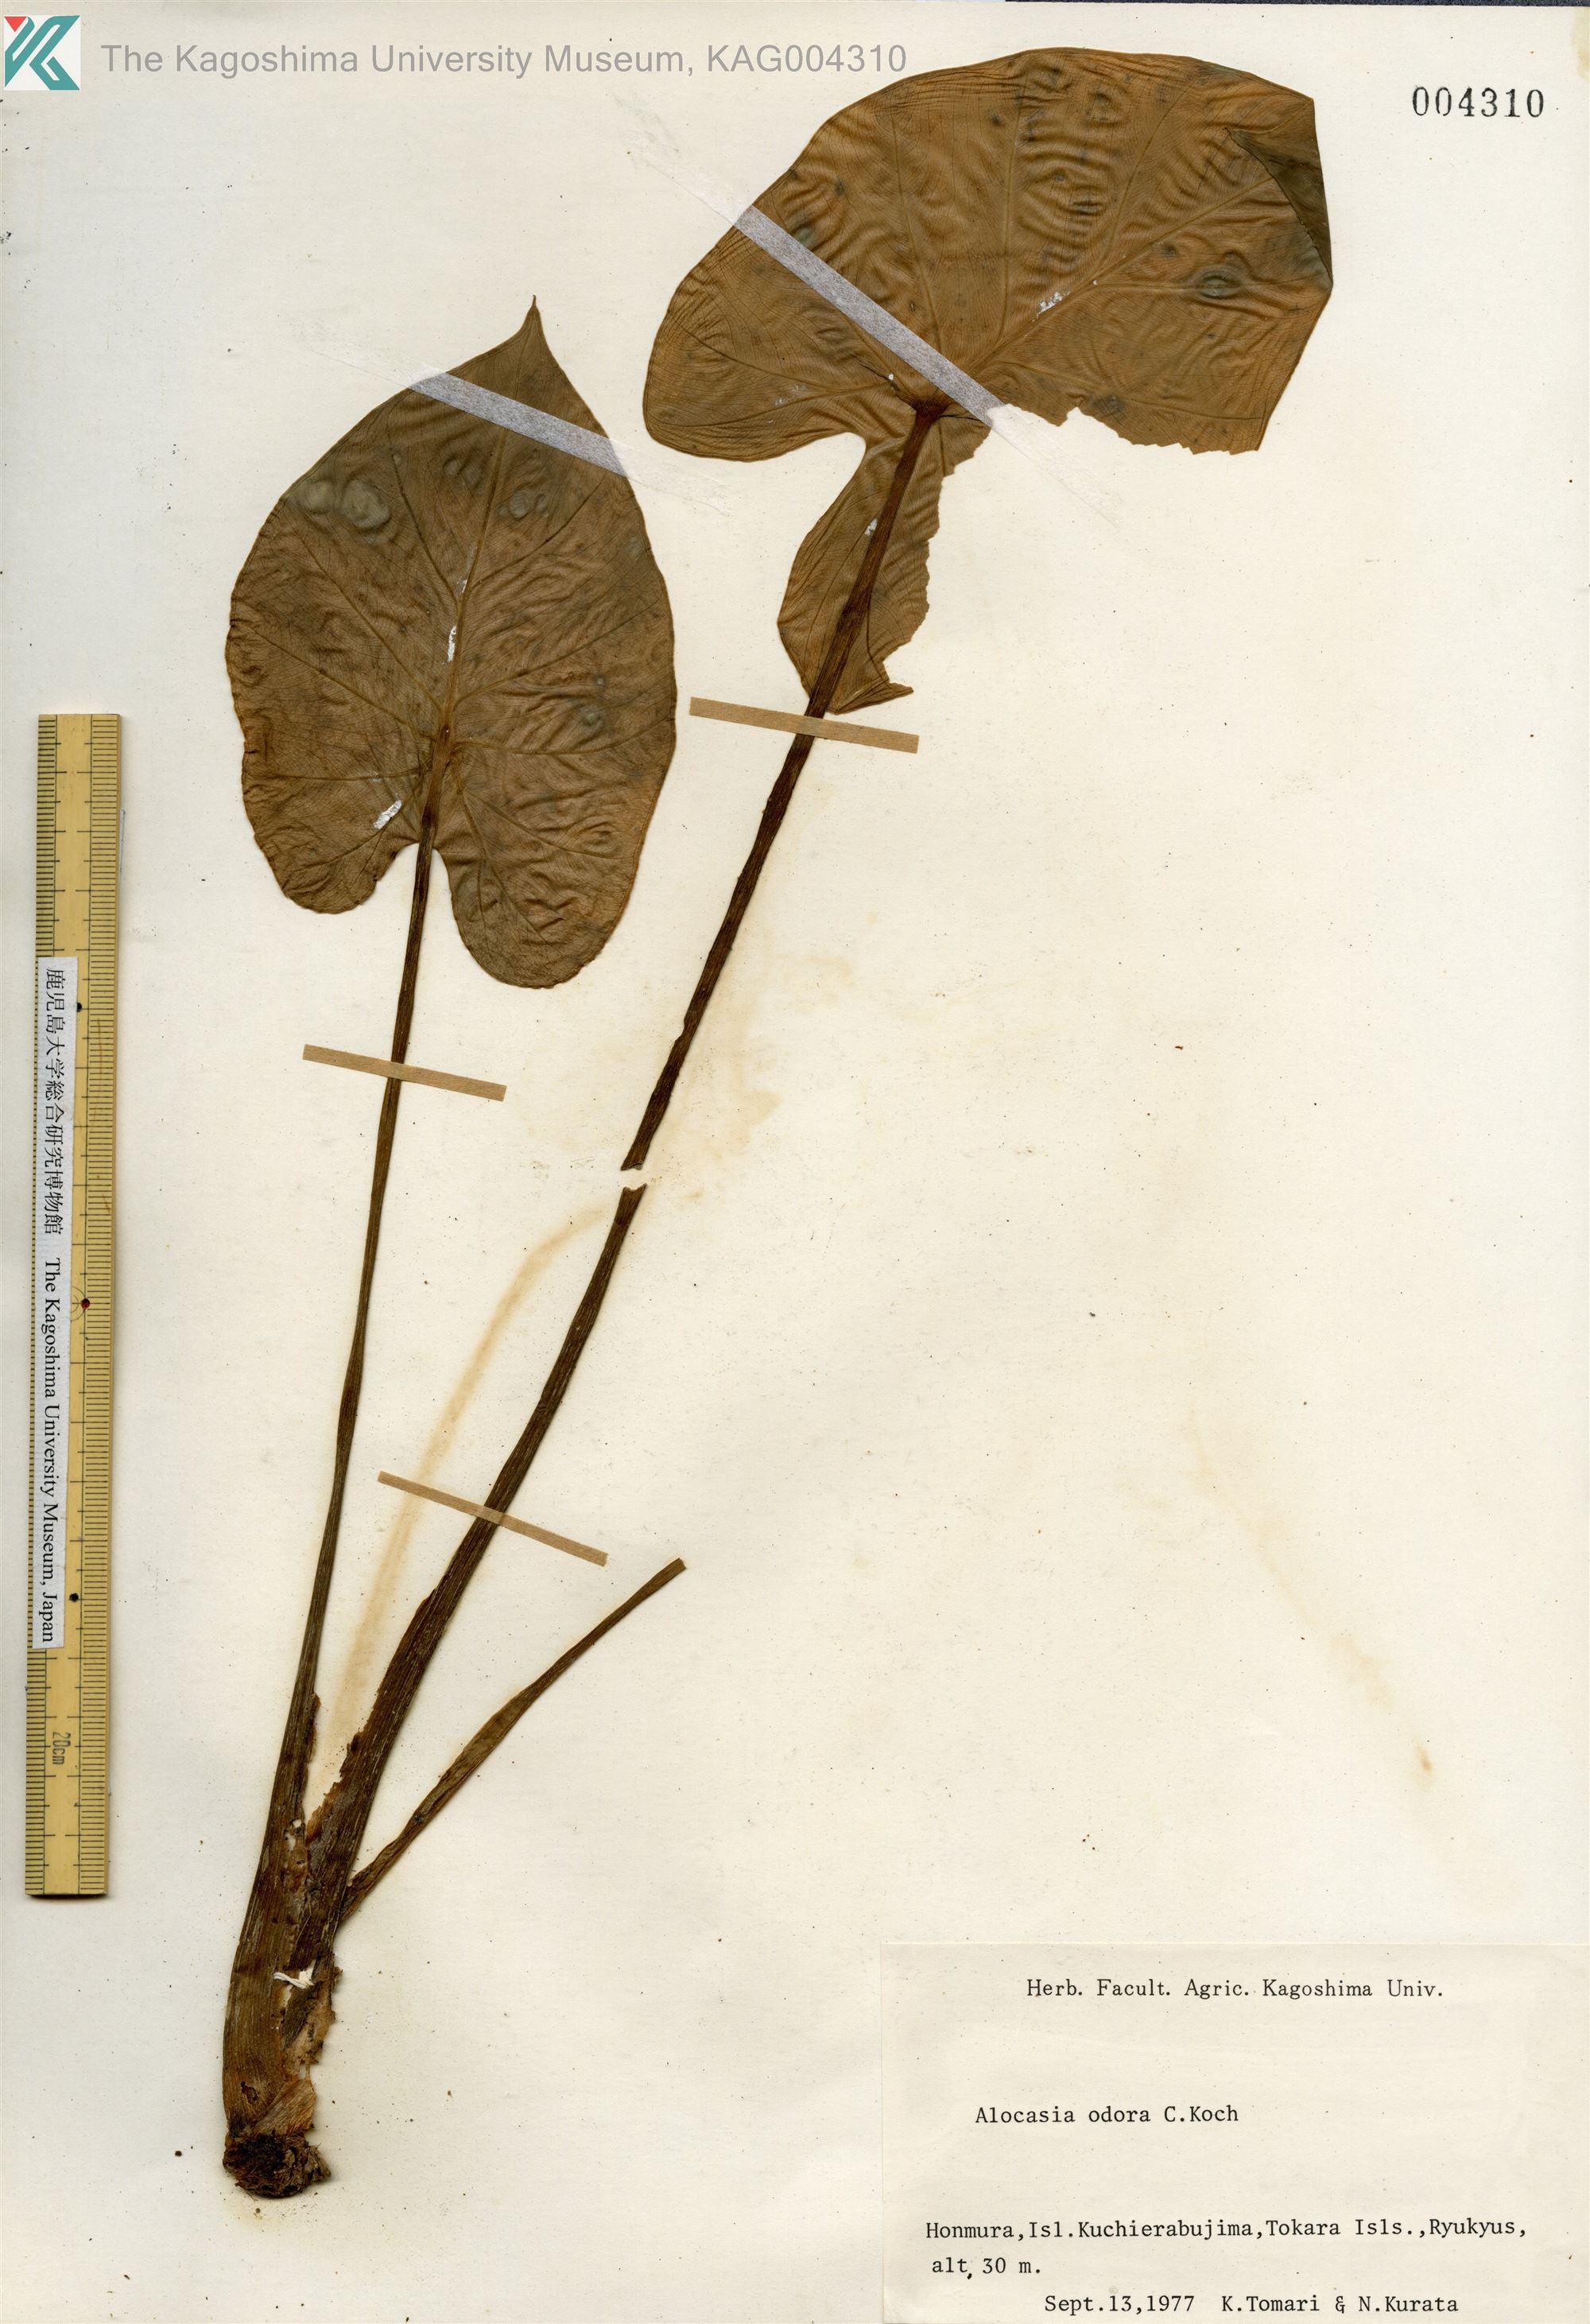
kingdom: Plantae
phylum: Tracheophyta
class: Liliopsida
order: Alismatales
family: Araceae
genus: Alocasia
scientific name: Alocasia odora
